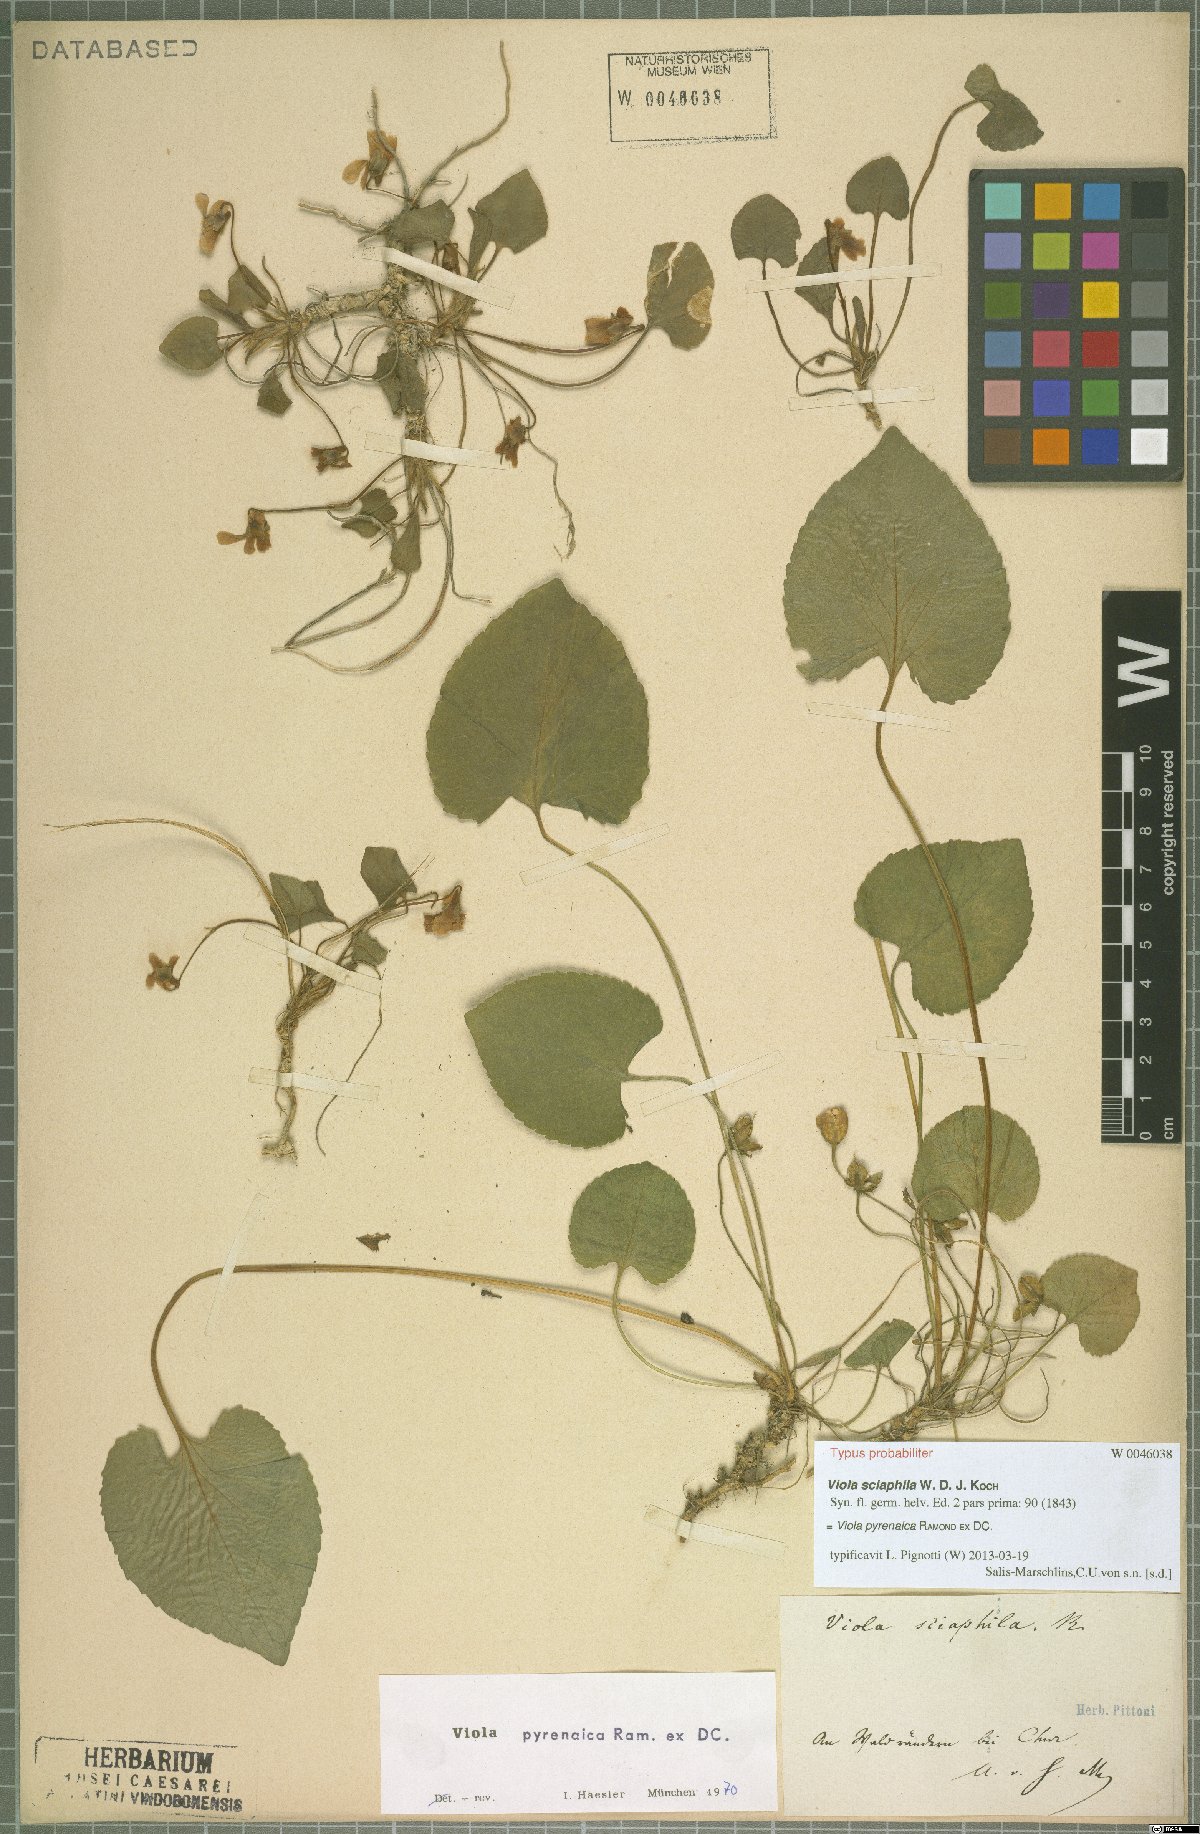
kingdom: Plantae
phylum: Tracheophyta
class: Magnoliopsida
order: Malpighiales
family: Violaceae
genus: Viola
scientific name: Viola pyrenaica
